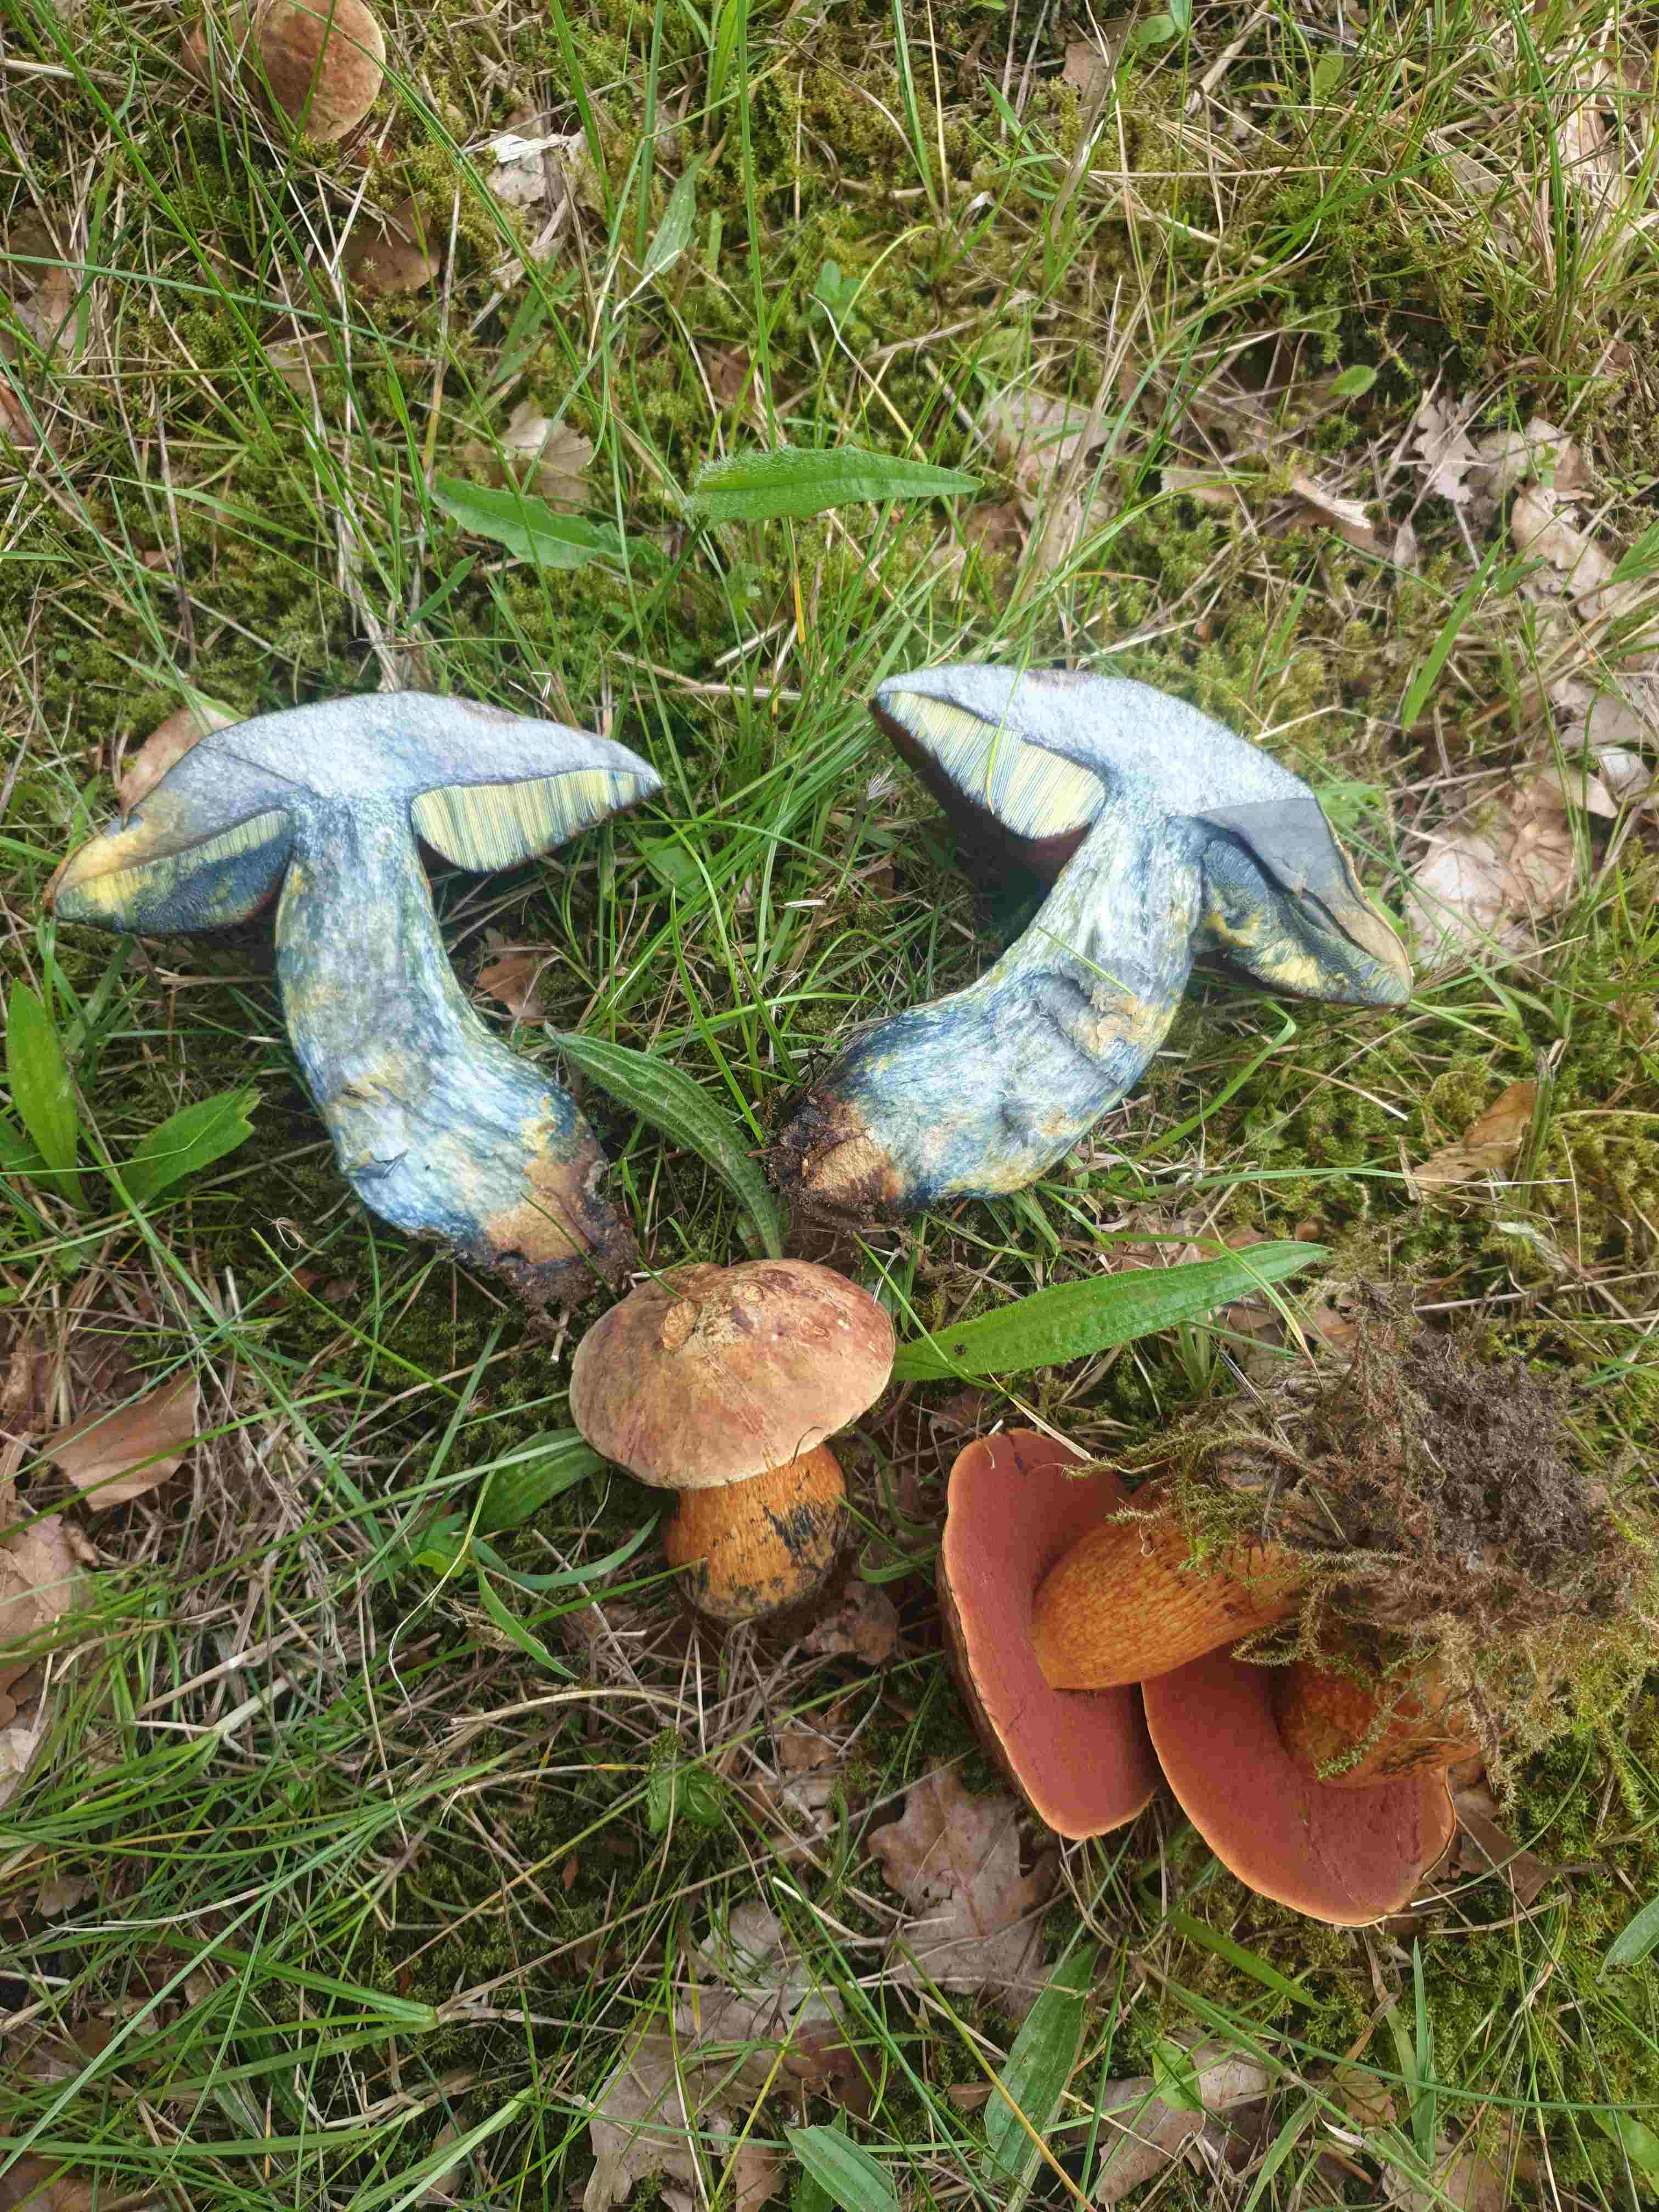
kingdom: Fungi
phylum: Basidiomycota
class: Agaricomycetes
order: Boletales
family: Boletaceae
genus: Neoboletus
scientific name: Neoboletus erythropus
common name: punktstokket indigorørhat
